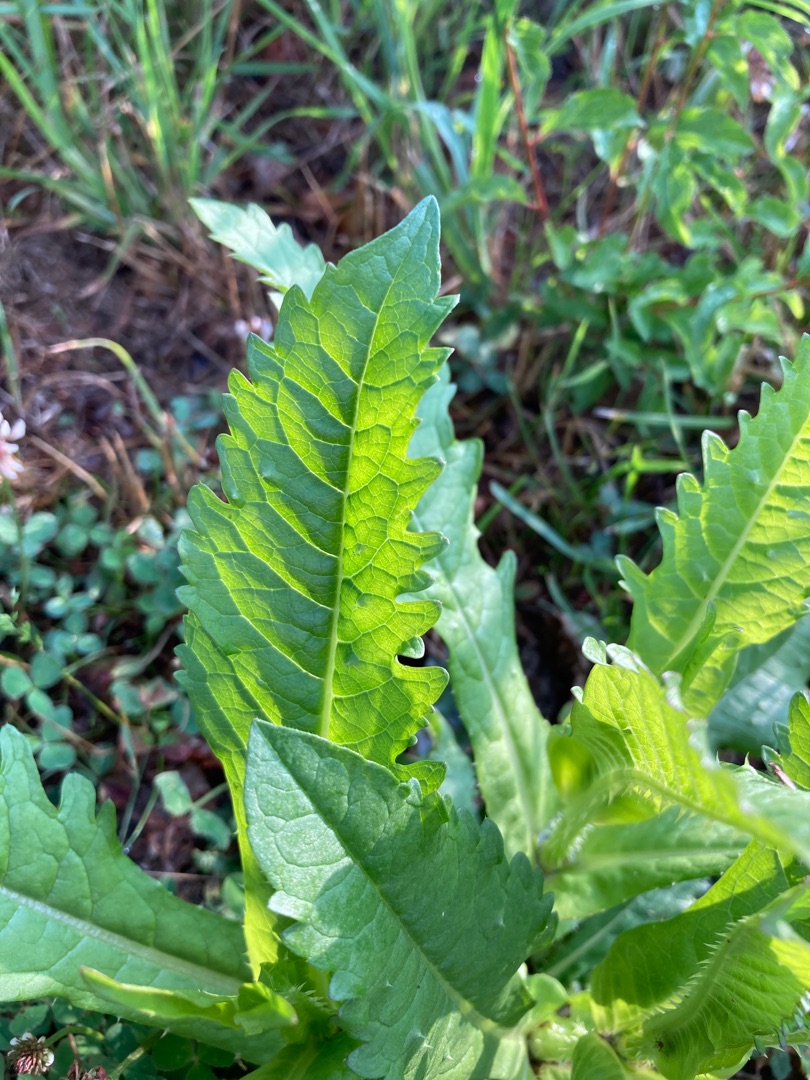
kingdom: Plantae
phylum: Tracheophyta
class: Magnoliopsida
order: Dipsacales
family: Caprifoliaceae
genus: Dipsacus
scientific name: Dipsacus laciniatus
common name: Fliget kartebolle
